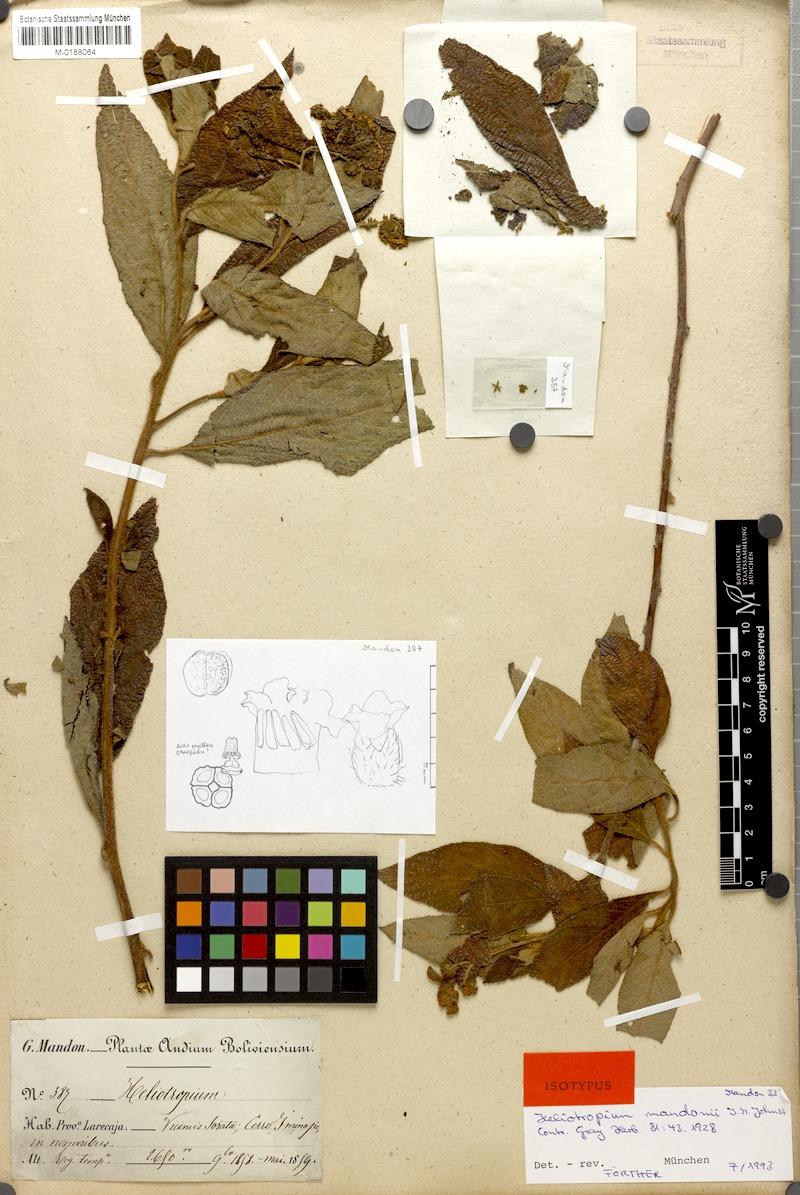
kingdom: Plantae
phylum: Tracheophyta
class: Magnoliopsida
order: Boraginales
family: Heliotropiaceae
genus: Heliotropium
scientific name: Heliotropium mandonii
